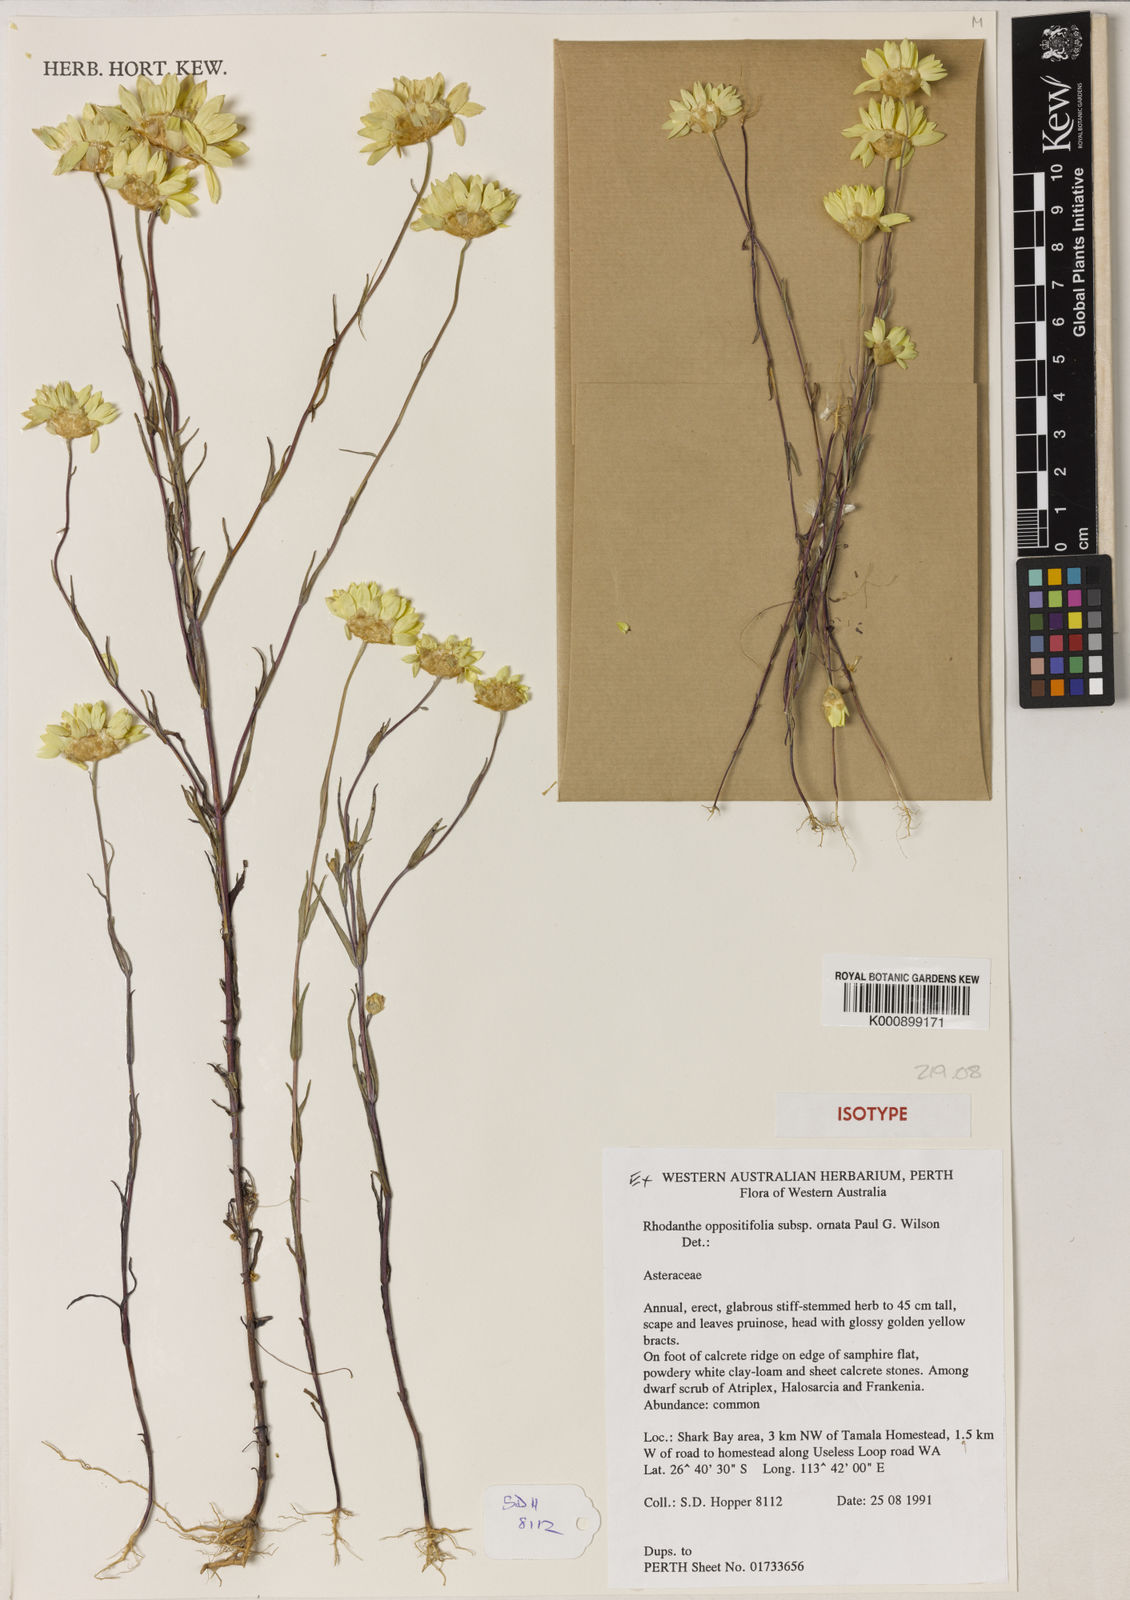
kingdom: Plantae
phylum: Tracheophyta
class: Magnoliopsida
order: Asterales
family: Asteraceae
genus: Rhodanthe
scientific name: Rhodanthe oppositifolia
